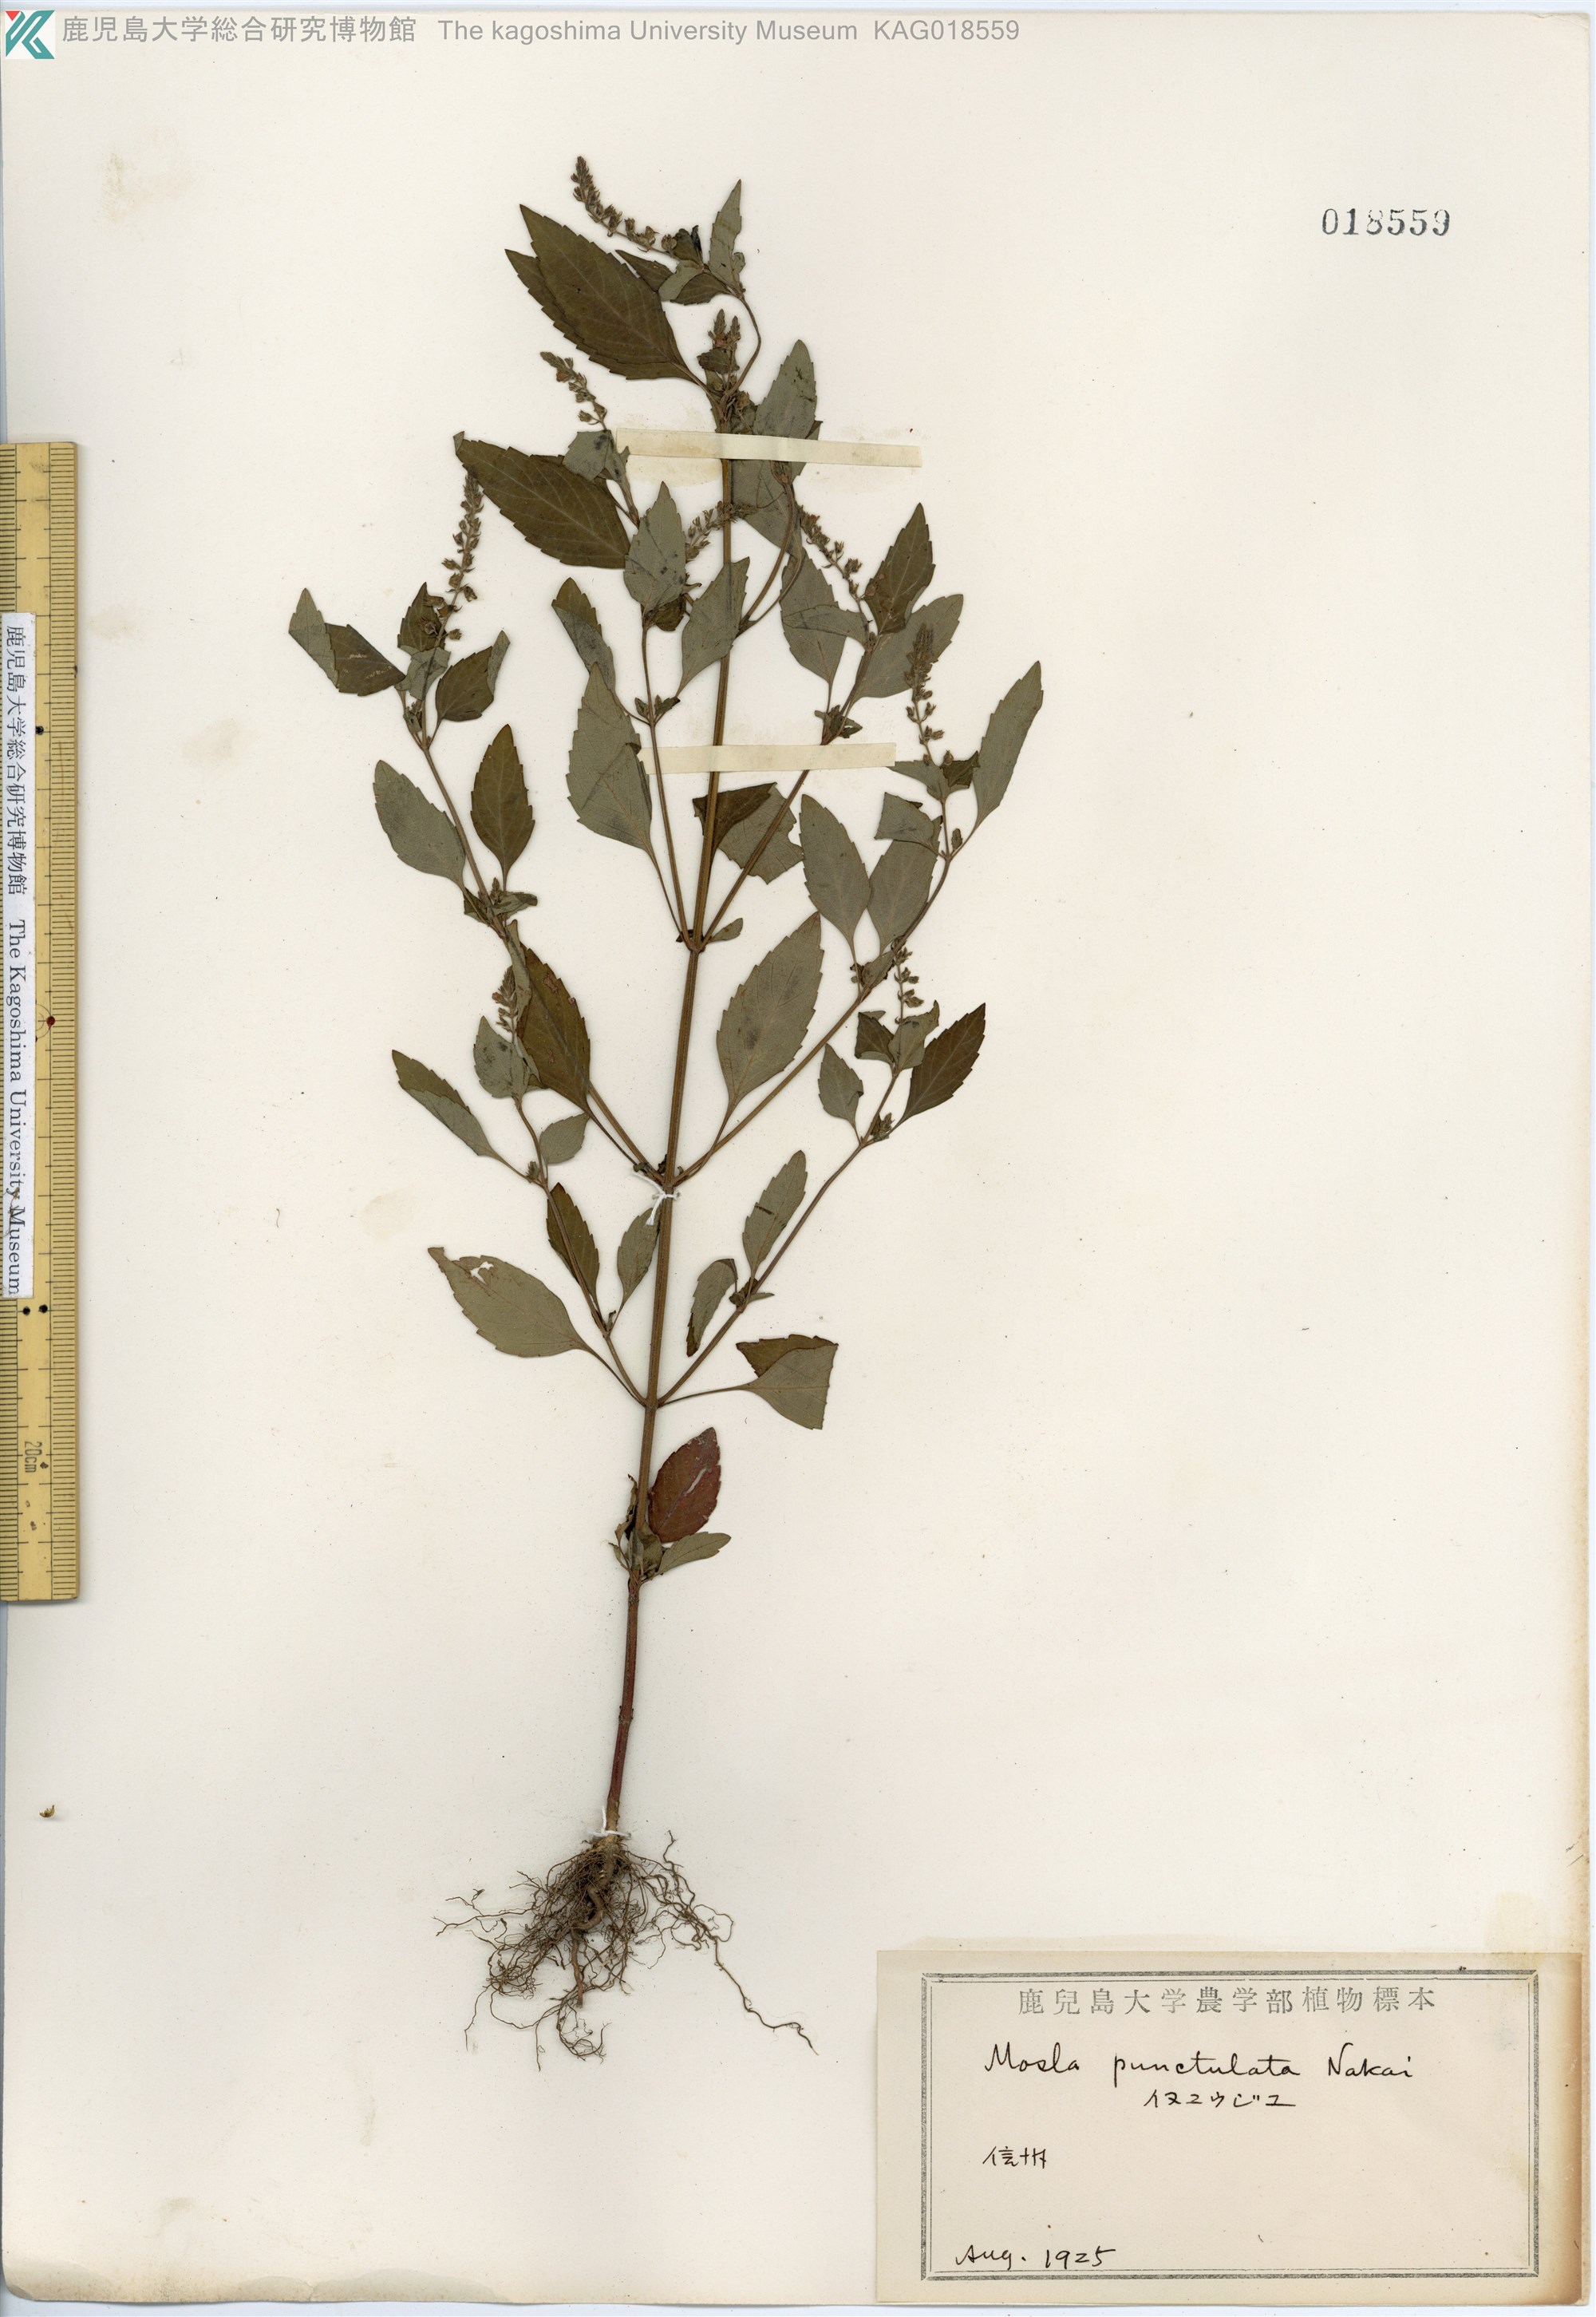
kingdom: Plantae
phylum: Tracheophyta
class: Magnoliopsida
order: Lamiales
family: Lamiaceae
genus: Mosla
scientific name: Mosla scabra
